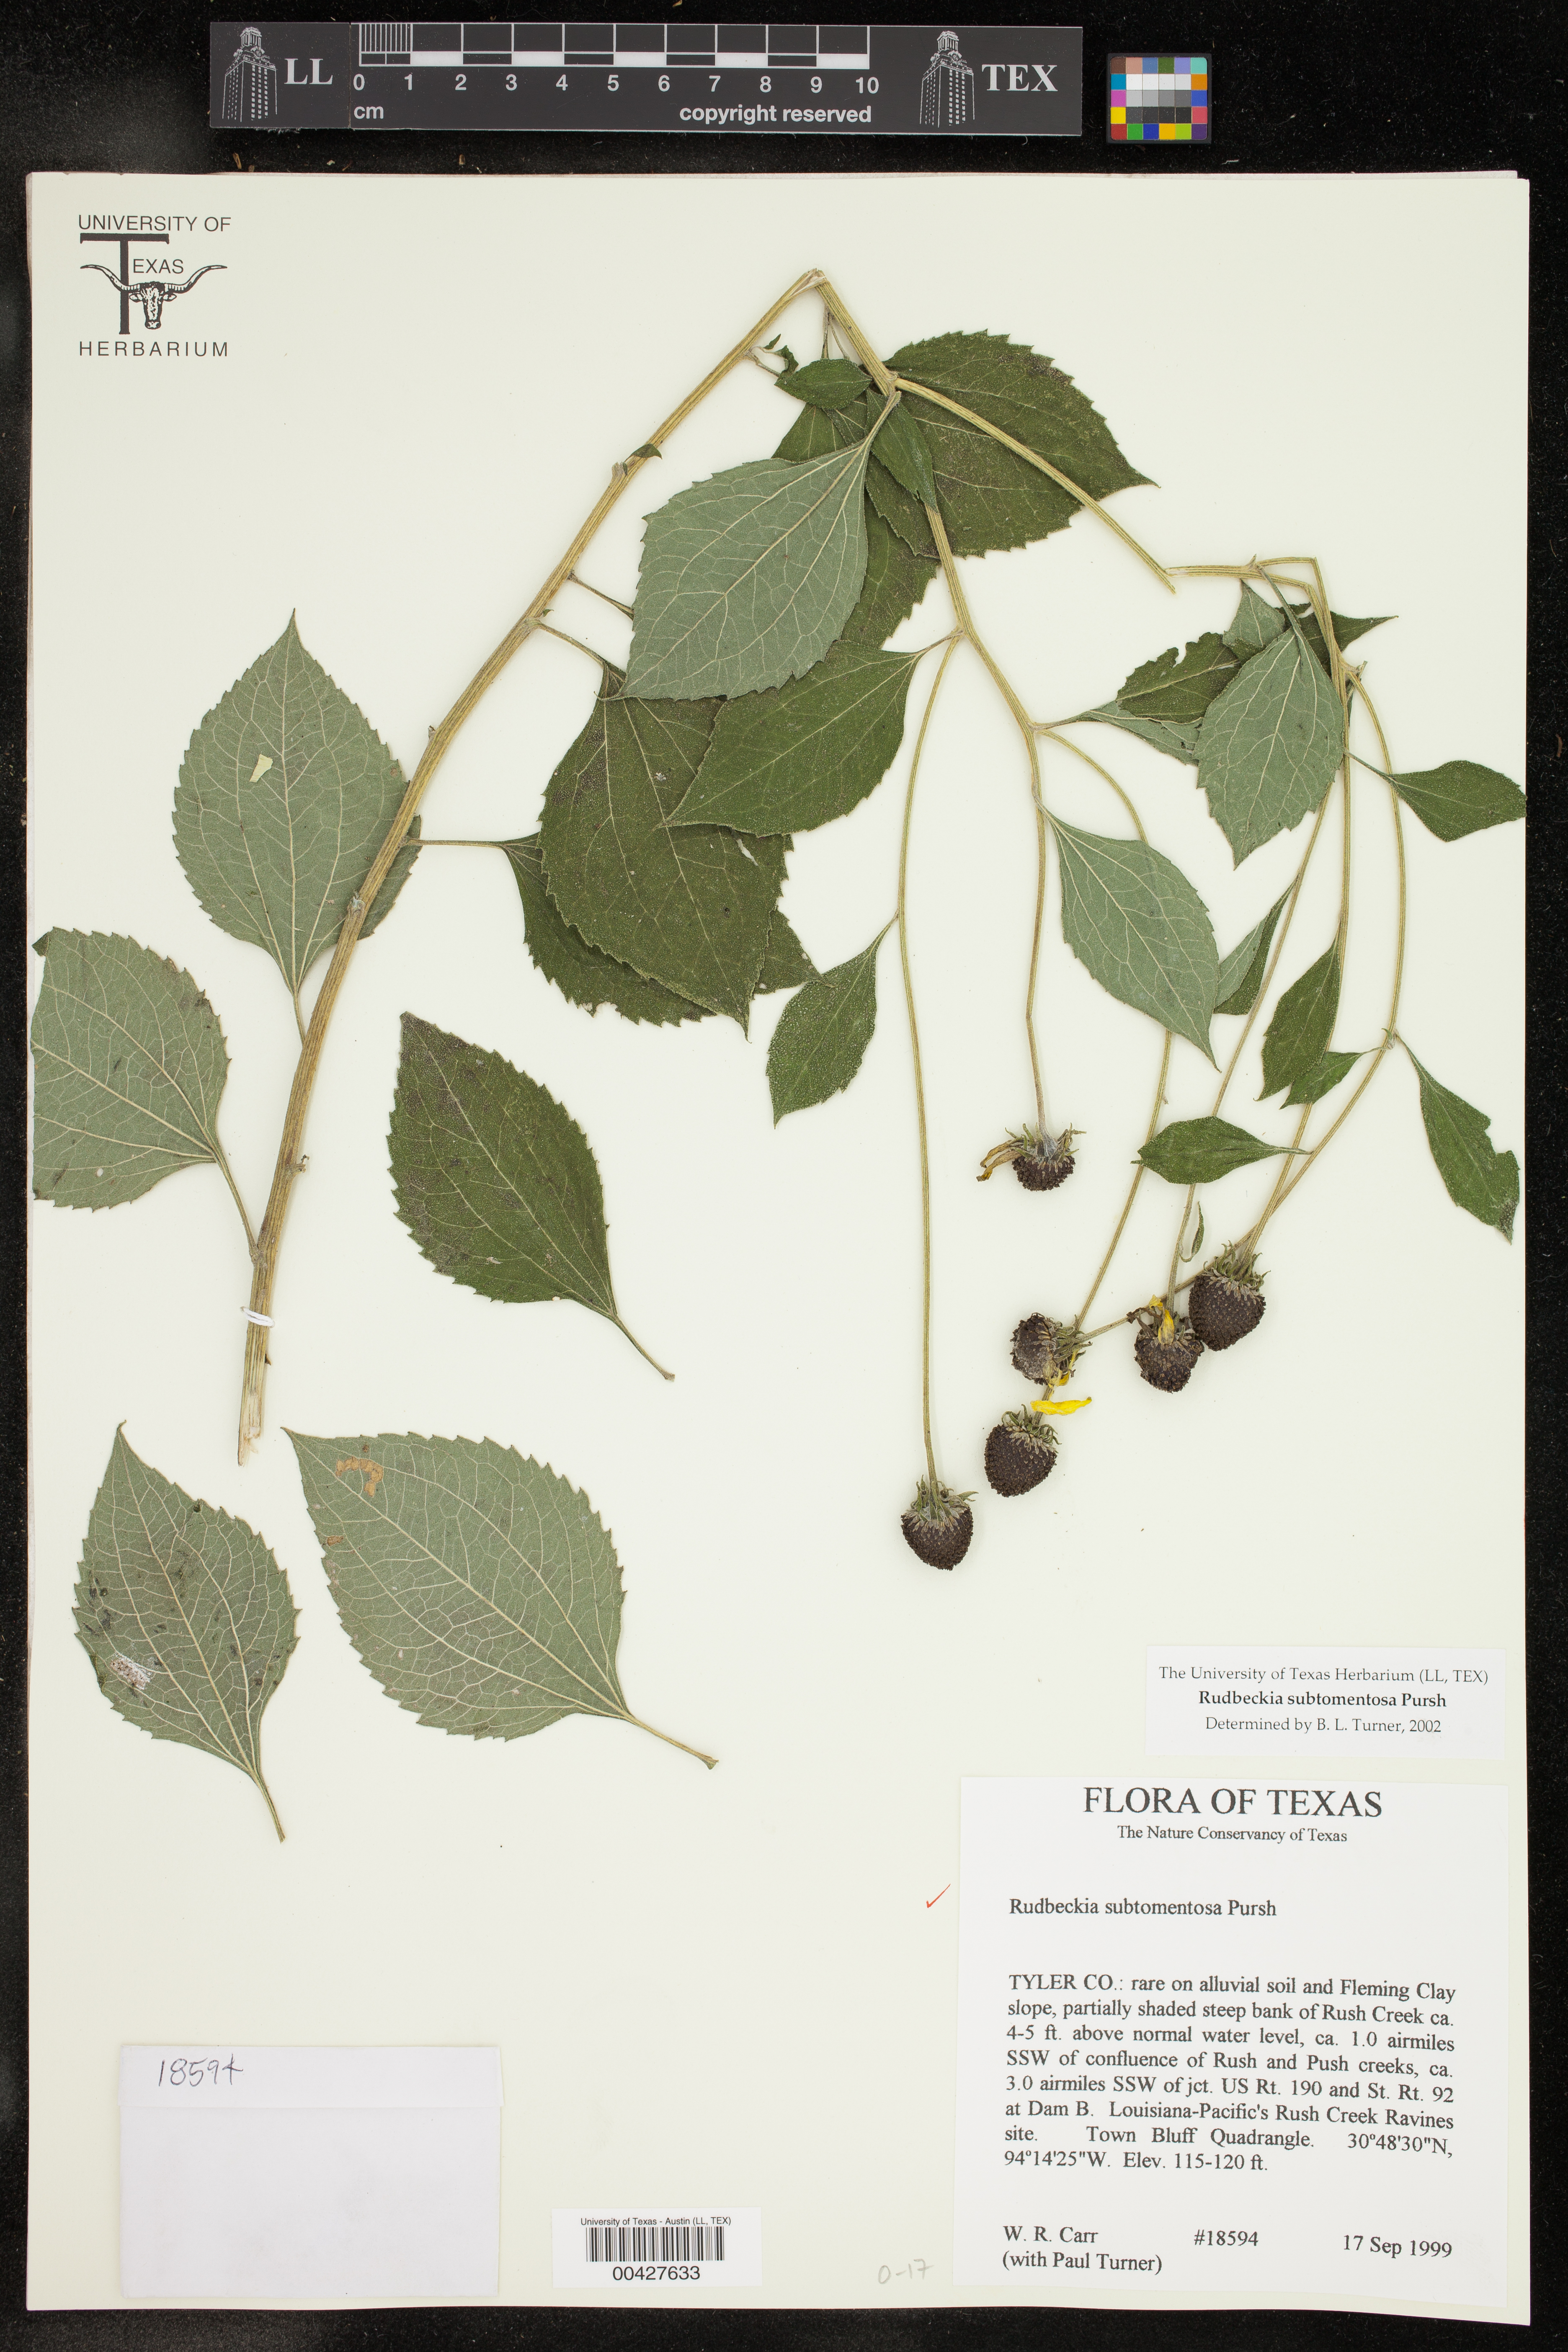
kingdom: Plantae
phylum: Tracheophyta
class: Magnoliopsida
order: Asterales
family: Asteraceae
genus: Rudbeckia
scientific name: Rudbeckia subtomentosa
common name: Sweet coneflower
